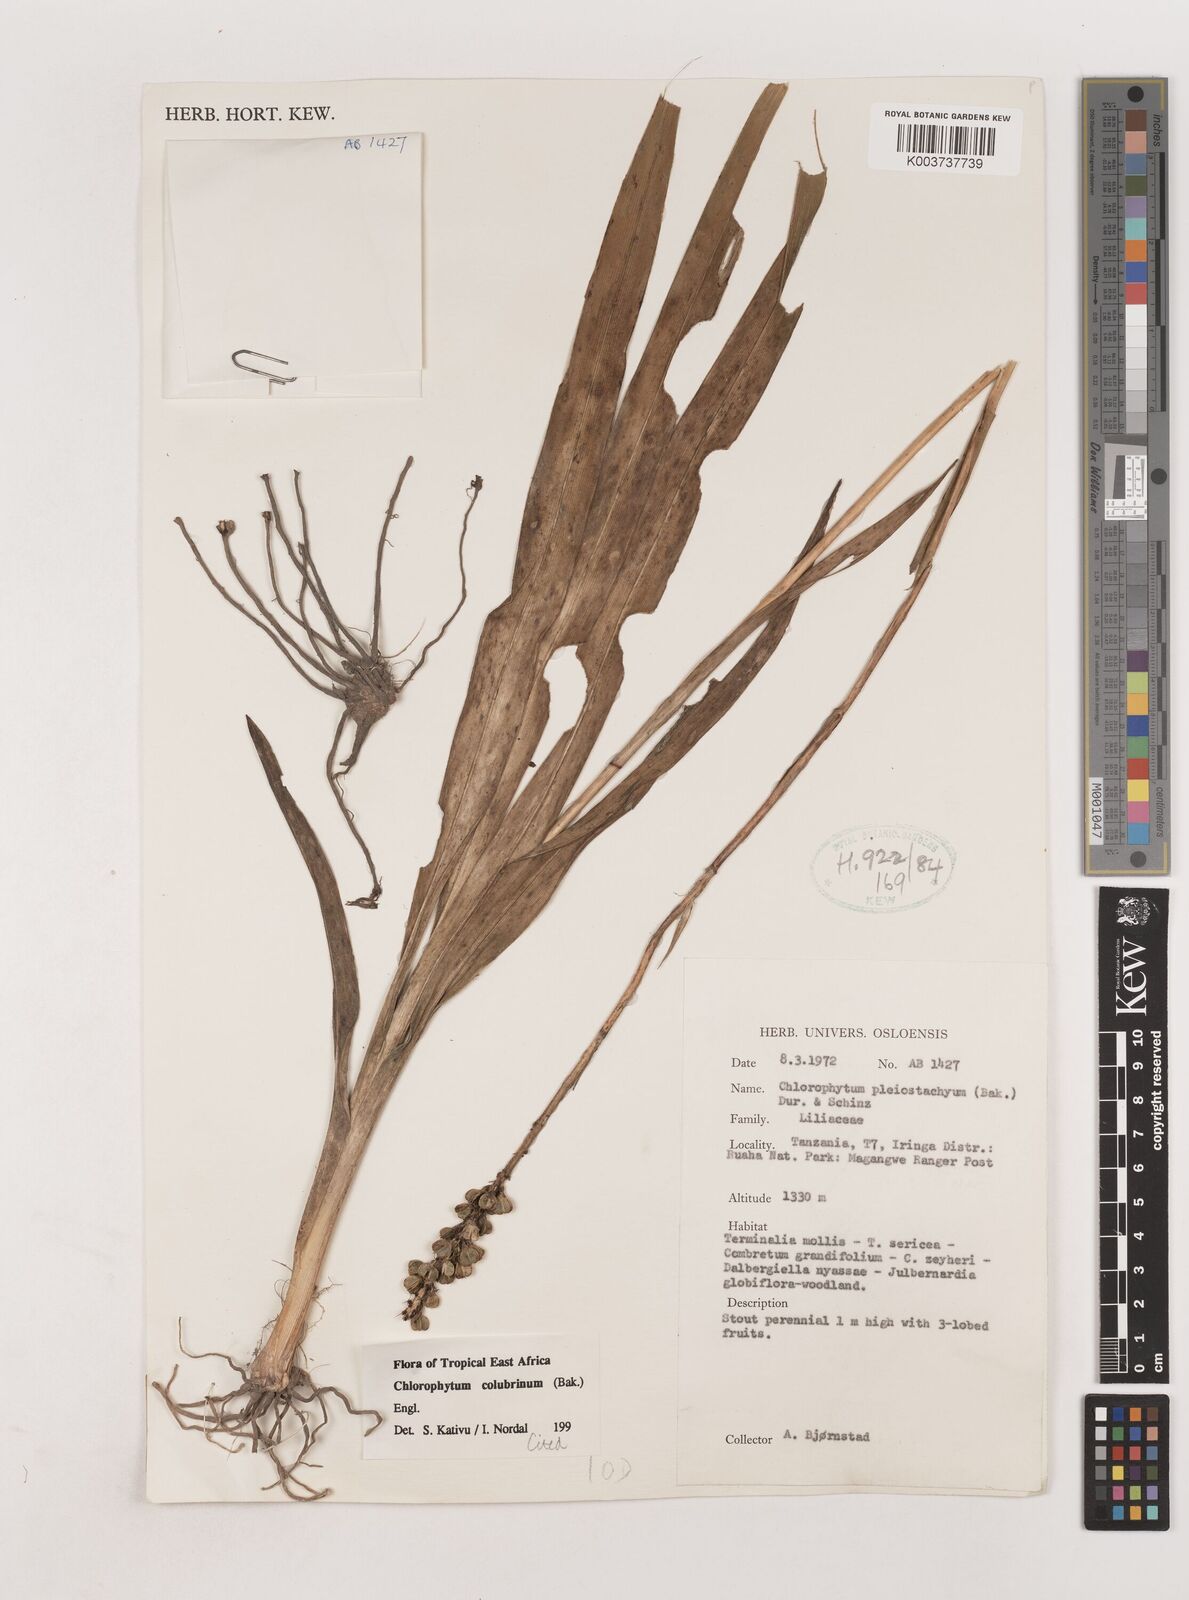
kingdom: Plantae
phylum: Tracheophyta
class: Liliopsida
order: Asparagales
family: Asparagaceae
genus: Chlorophytum
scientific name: Chlorophytum colubrinum
